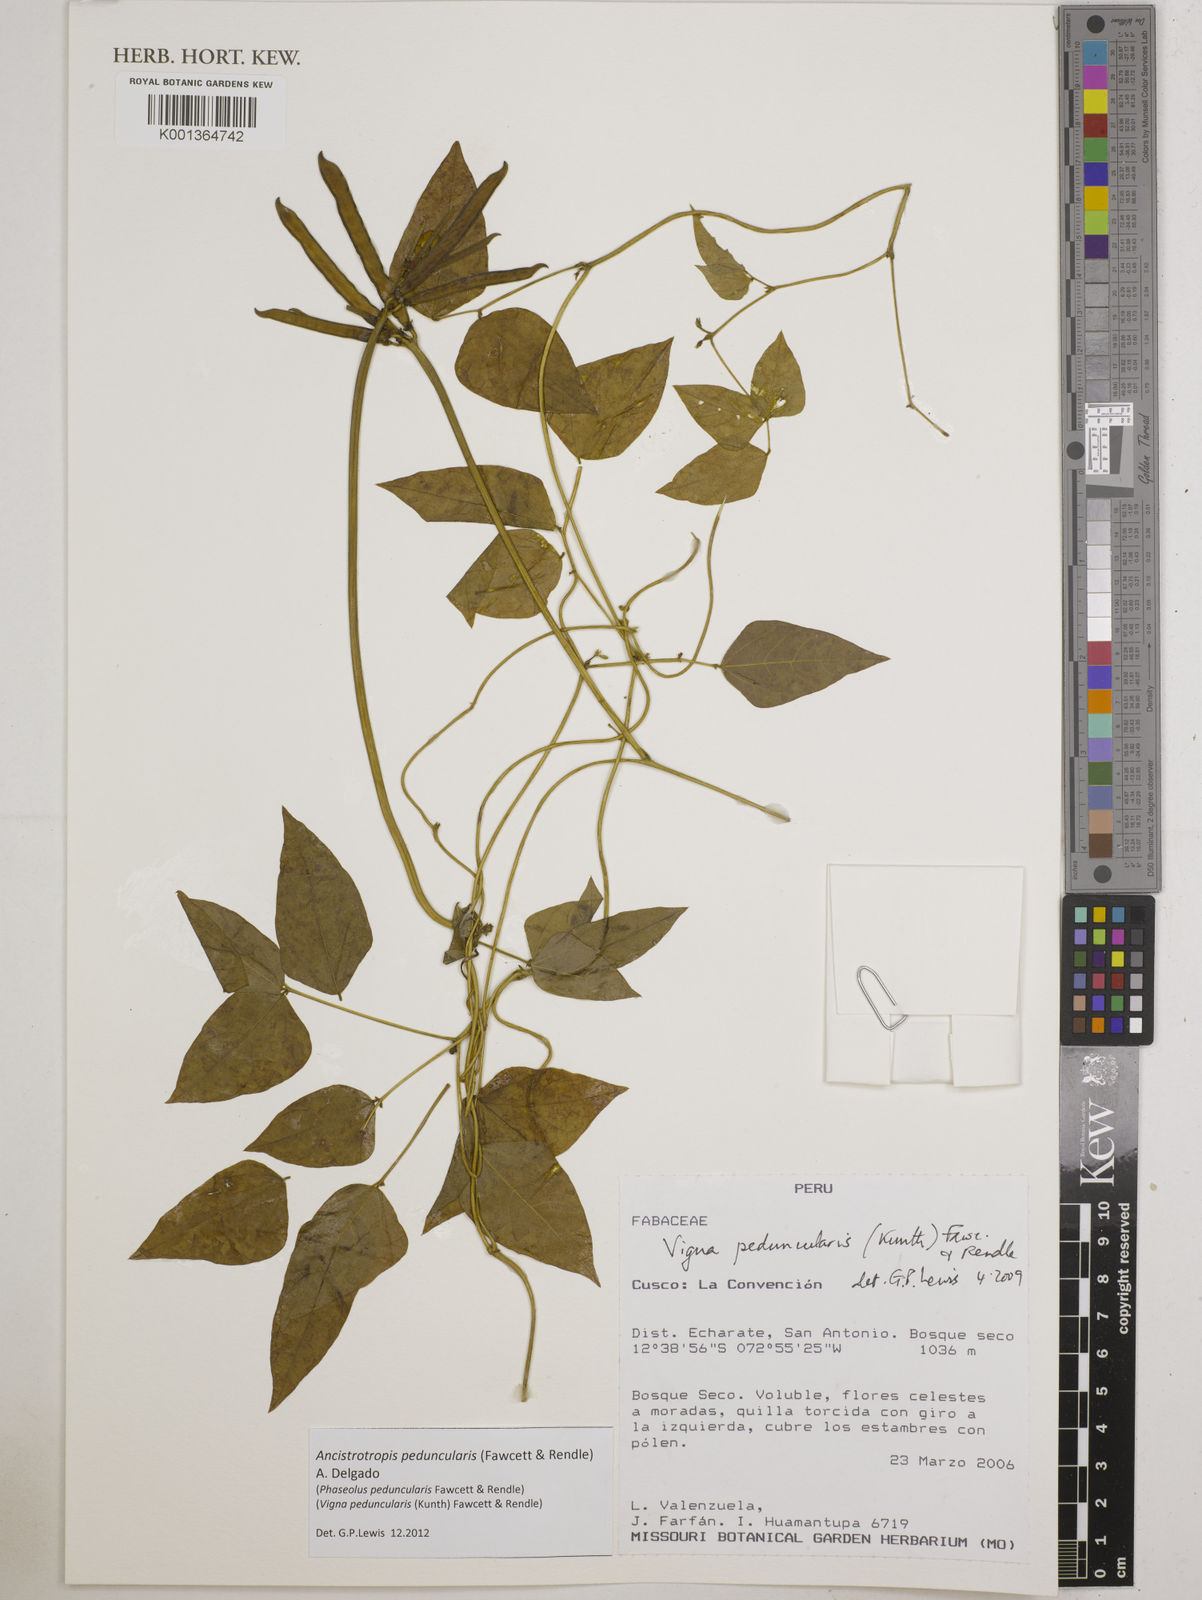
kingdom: Plantae
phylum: Tracheophyta
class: Magnoliopsida
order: Fabales
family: Fabaceae
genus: Ancistrotropis
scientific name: Ancistrotropis peduncularis
